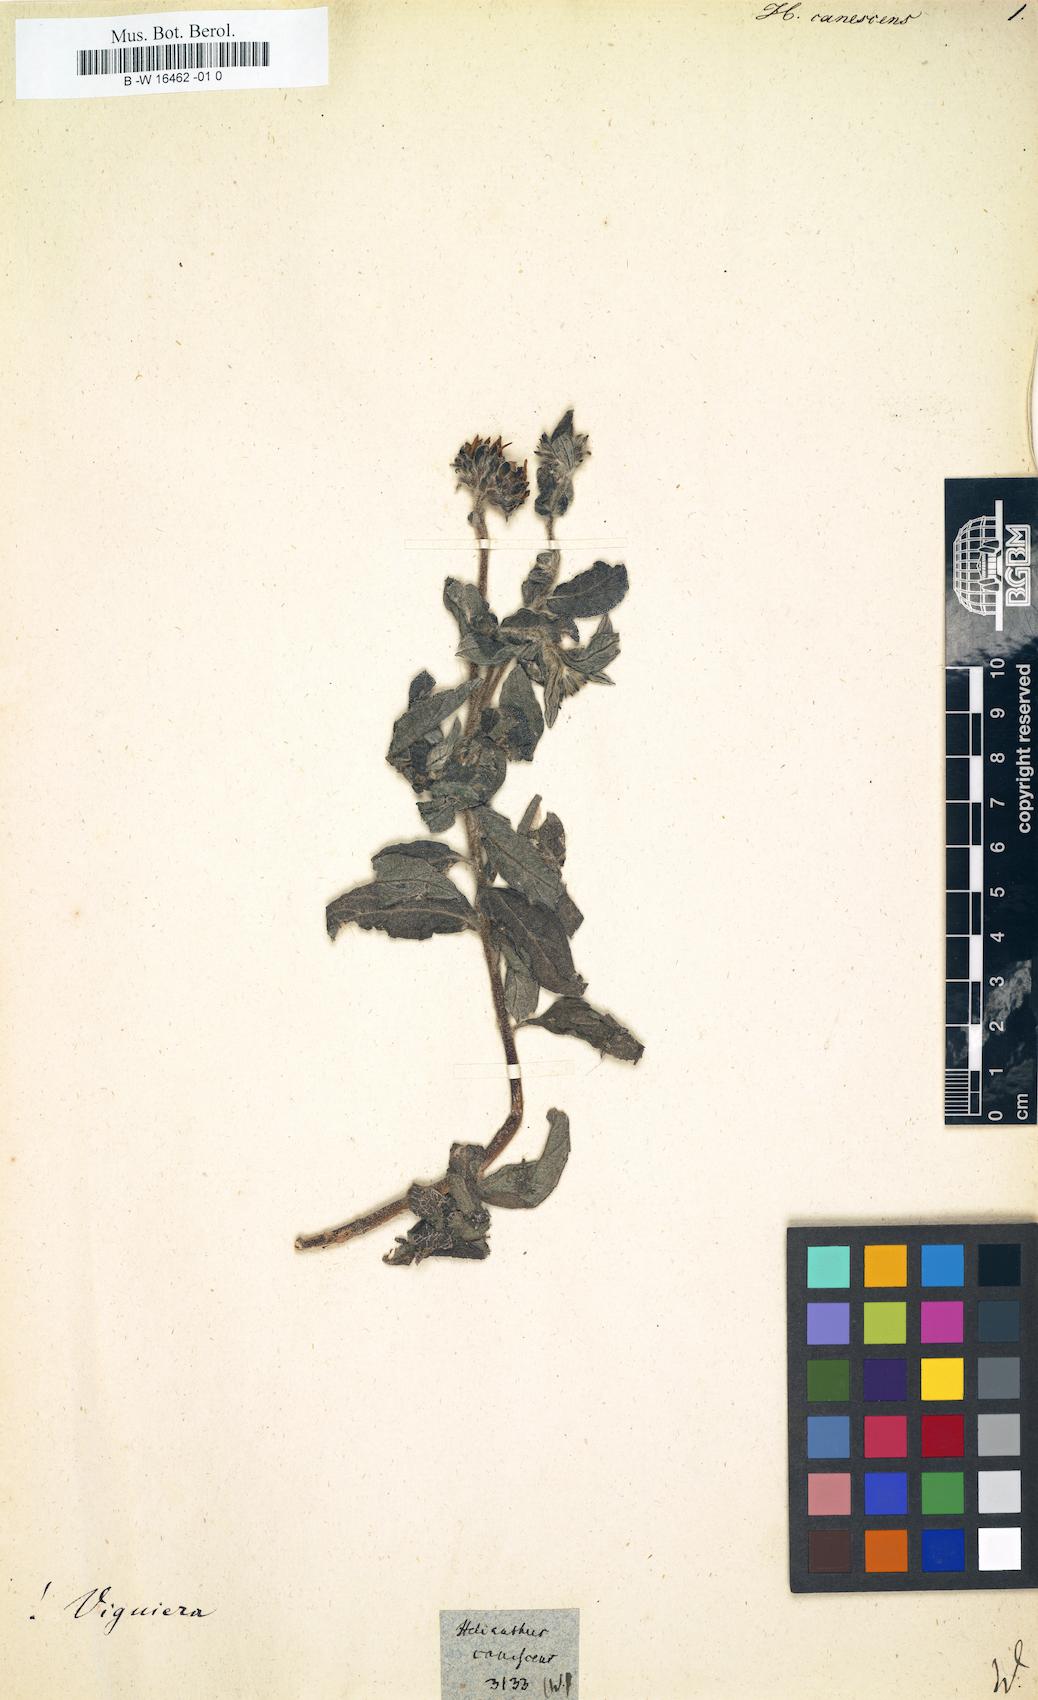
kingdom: Plantae
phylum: Tracheophyta
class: Magnoliopsida
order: Asterales
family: Asteraceae
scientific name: Asteraceae
